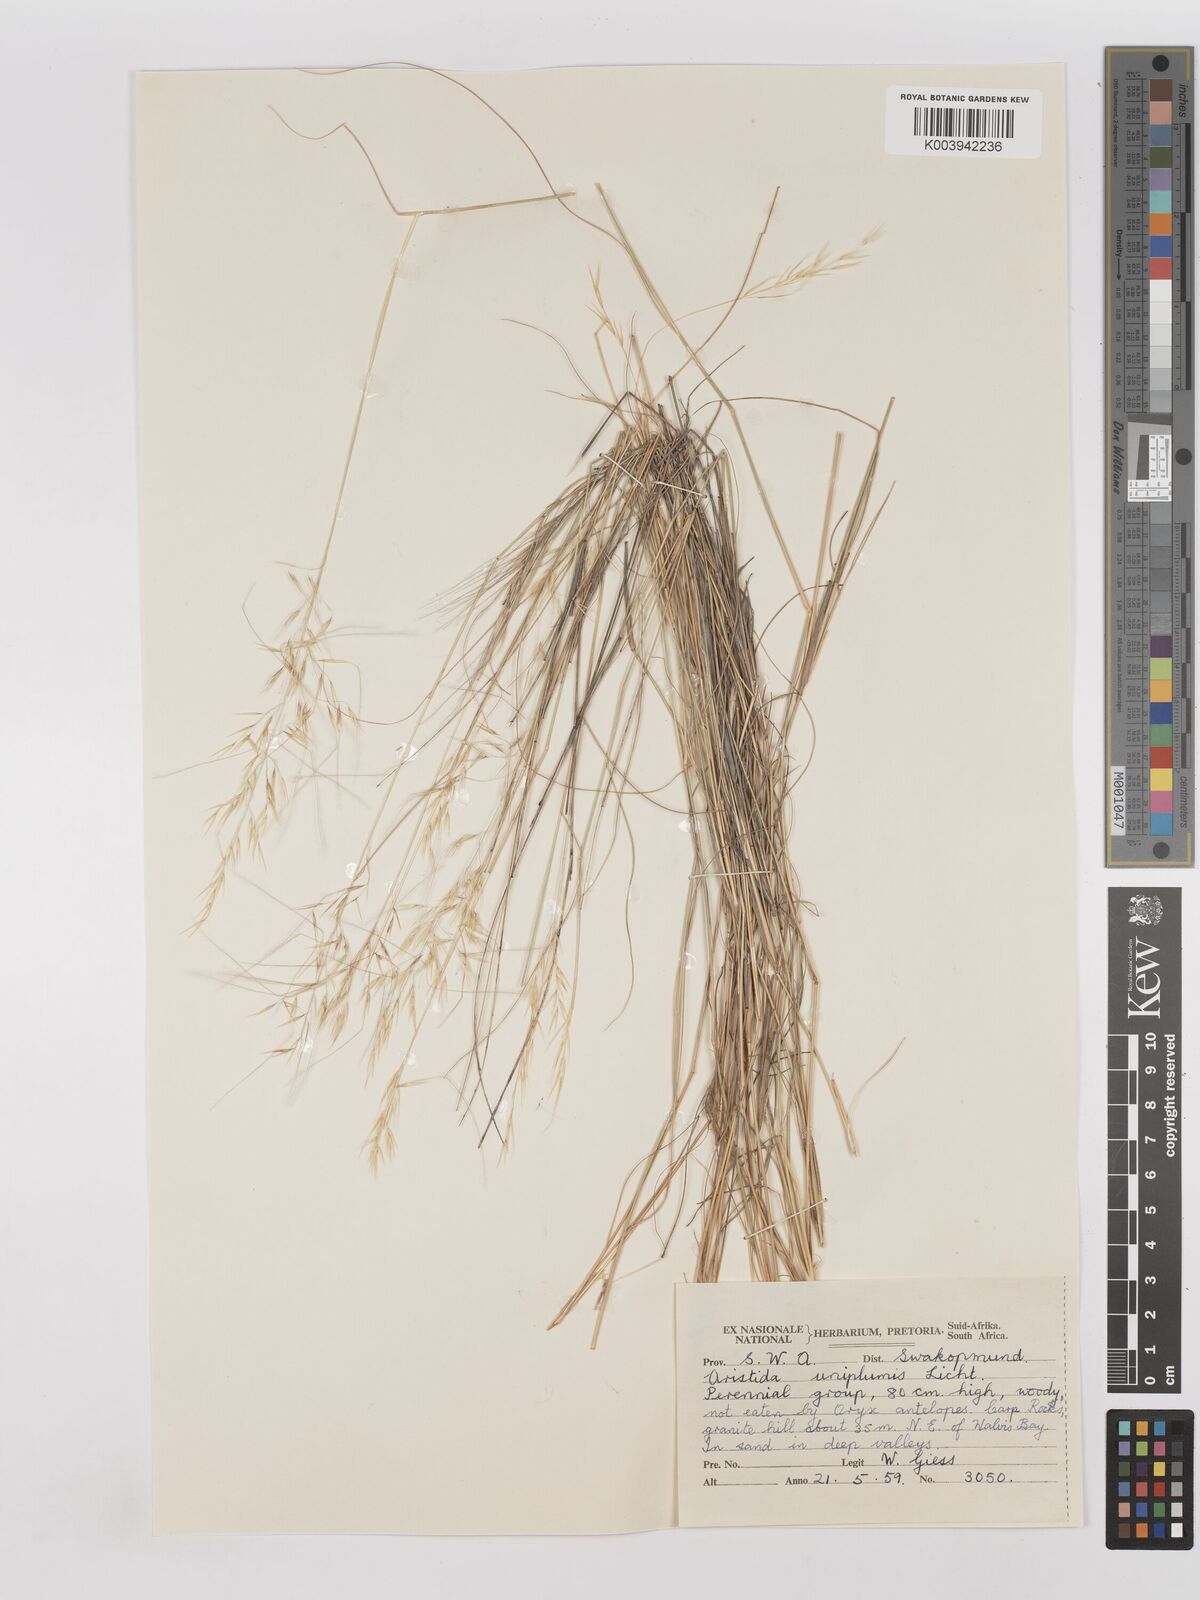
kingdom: Plantae
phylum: Tracheophyta
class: Liliopsida
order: Poales
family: Poaceae
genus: Stipagrostis
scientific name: Stipagrostis uniplumis
